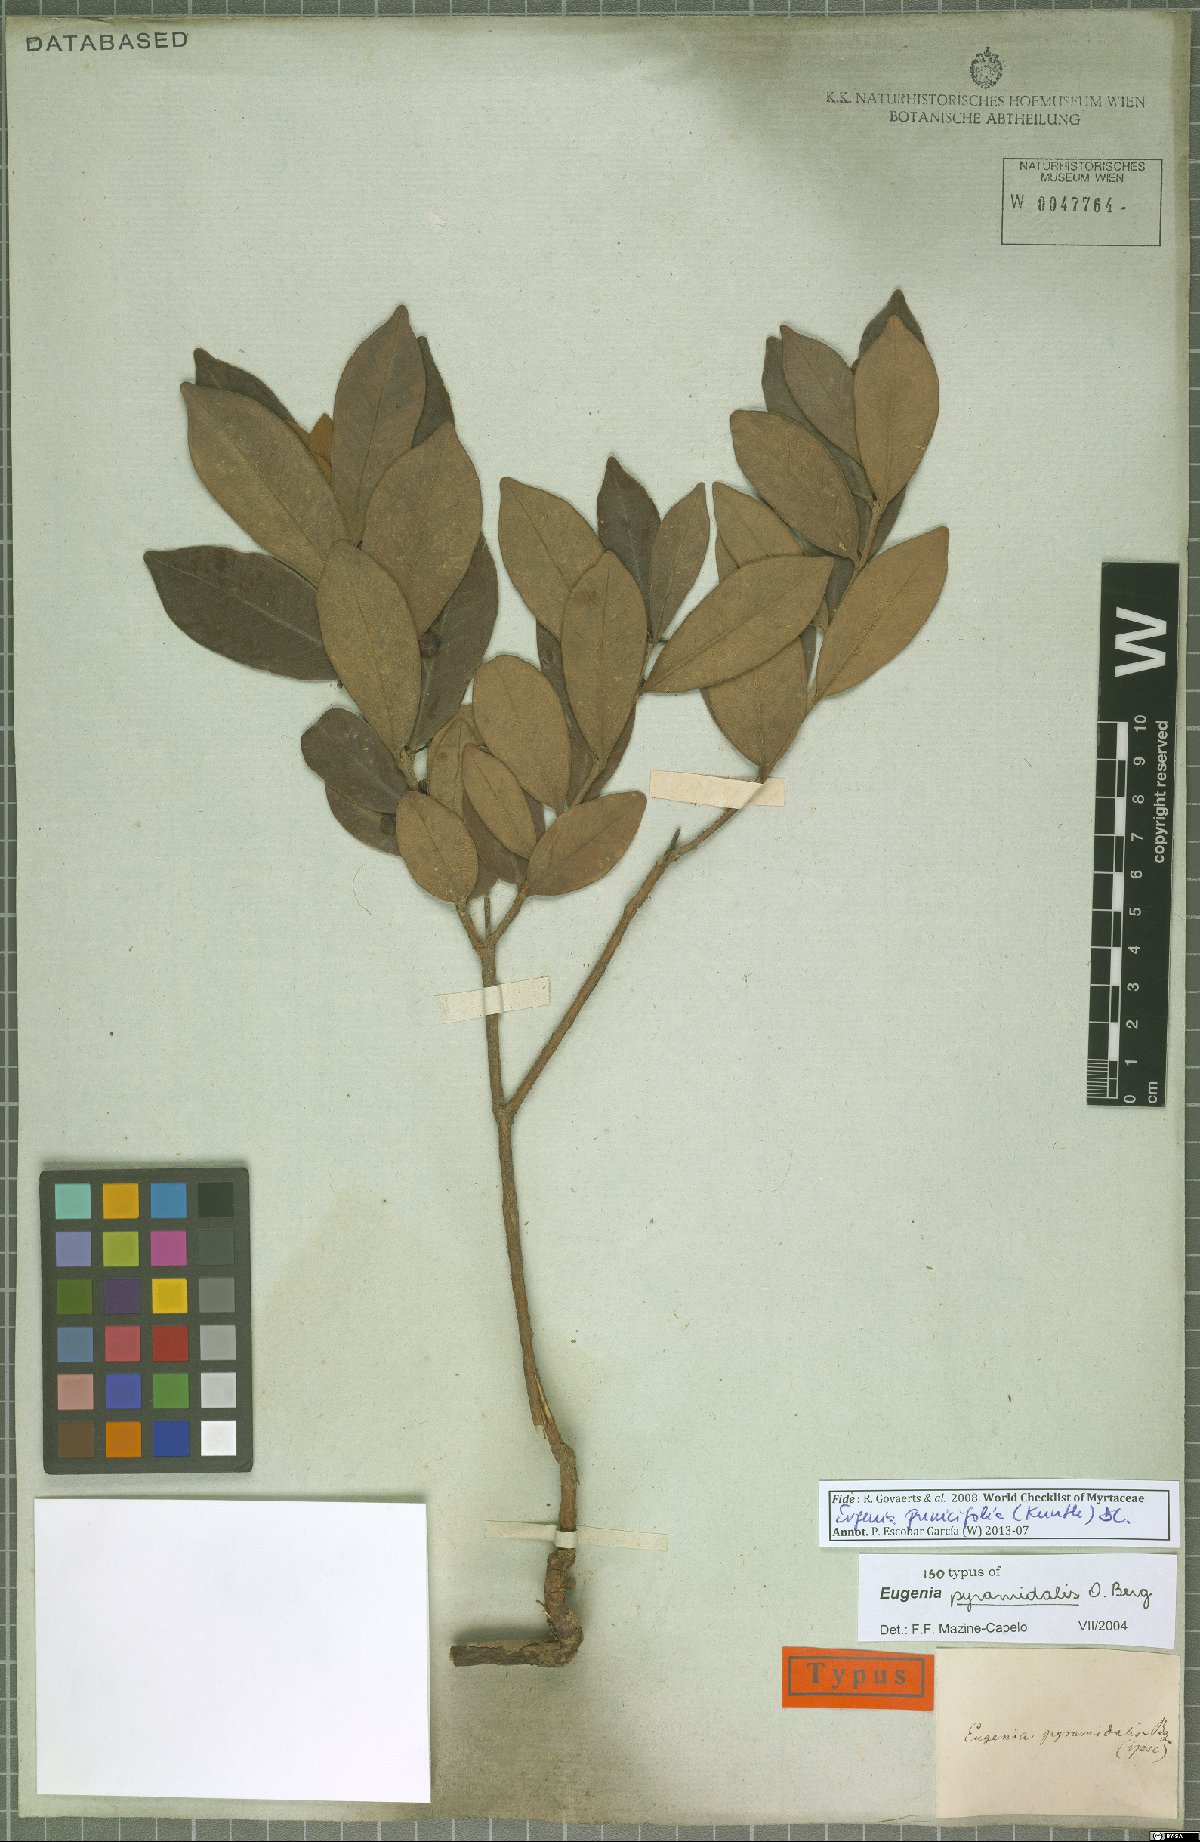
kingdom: Plantae
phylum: Tracheophyta
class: Magnoliopsida
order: Myrtales
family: Myrtaceae
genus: Eugenia
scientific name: Eugenia punicifolia
